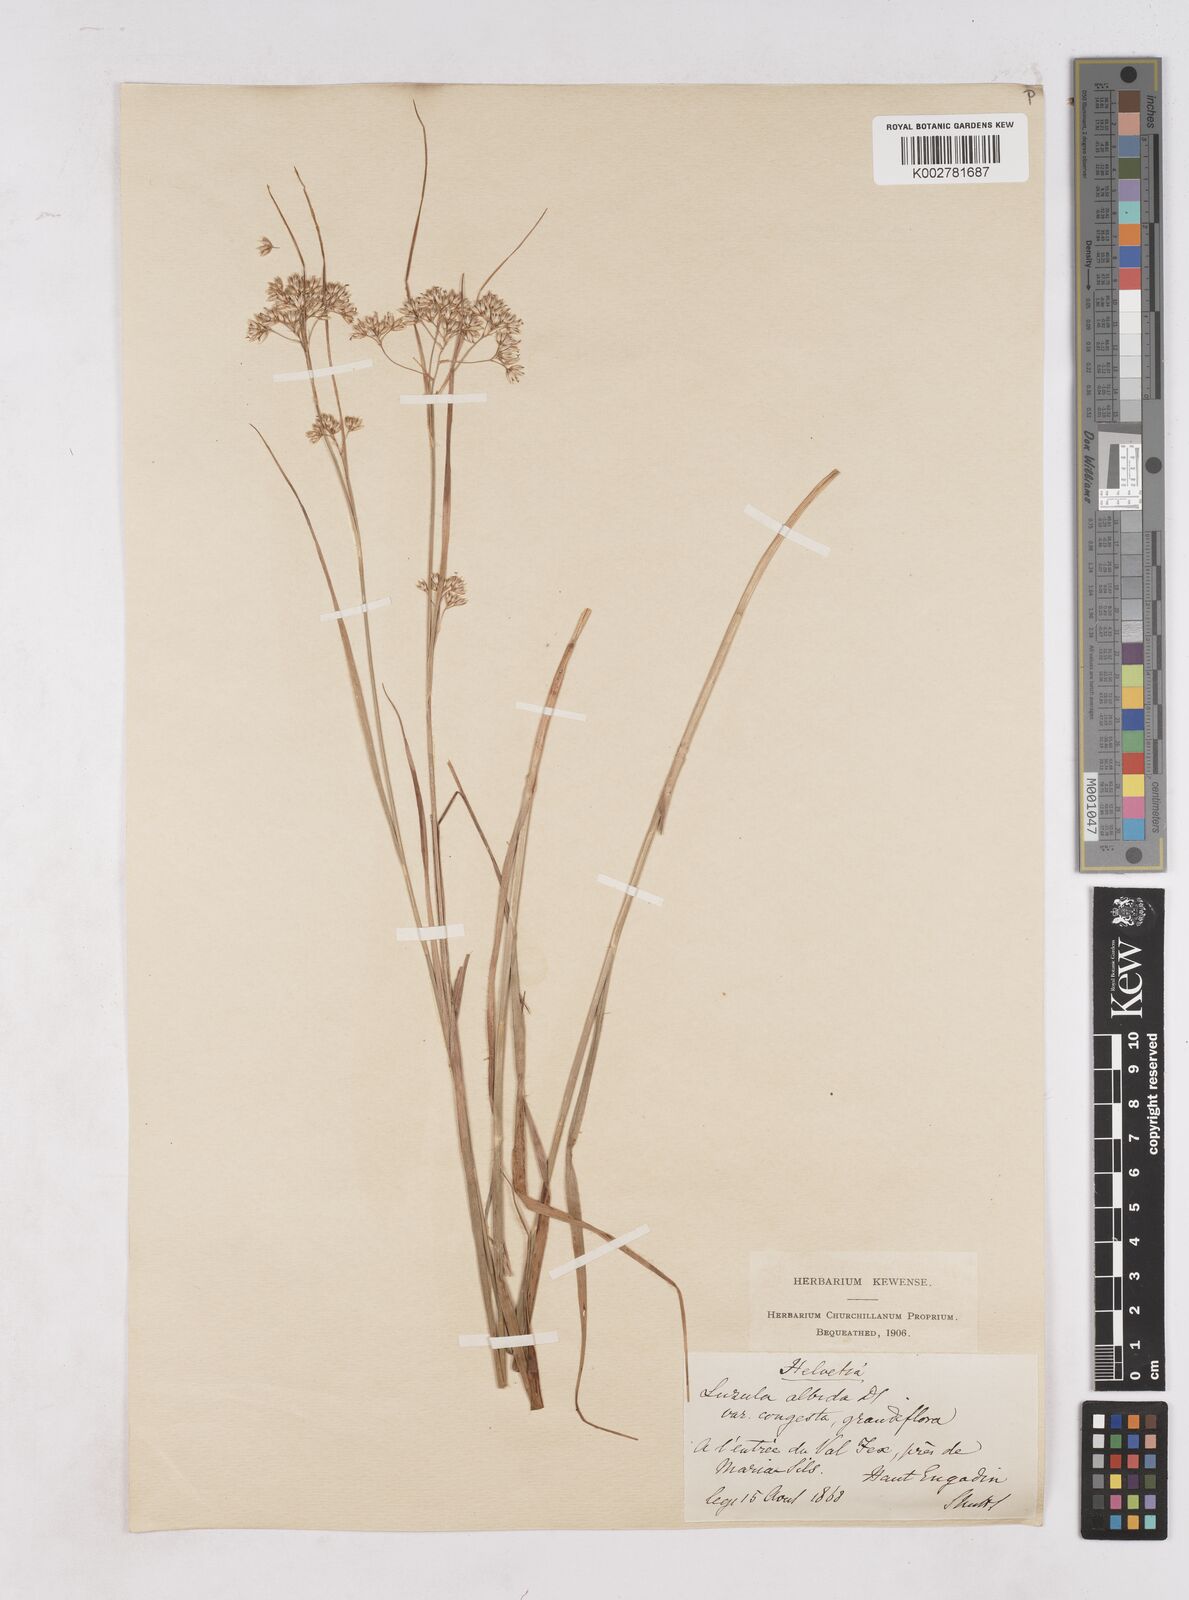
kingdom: Plantae
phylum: Tracheophyta
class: Liliopsida
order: Poales
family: Juncaceae
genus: Luzula
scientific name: Luzula luzuloides
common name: White wood-rush
